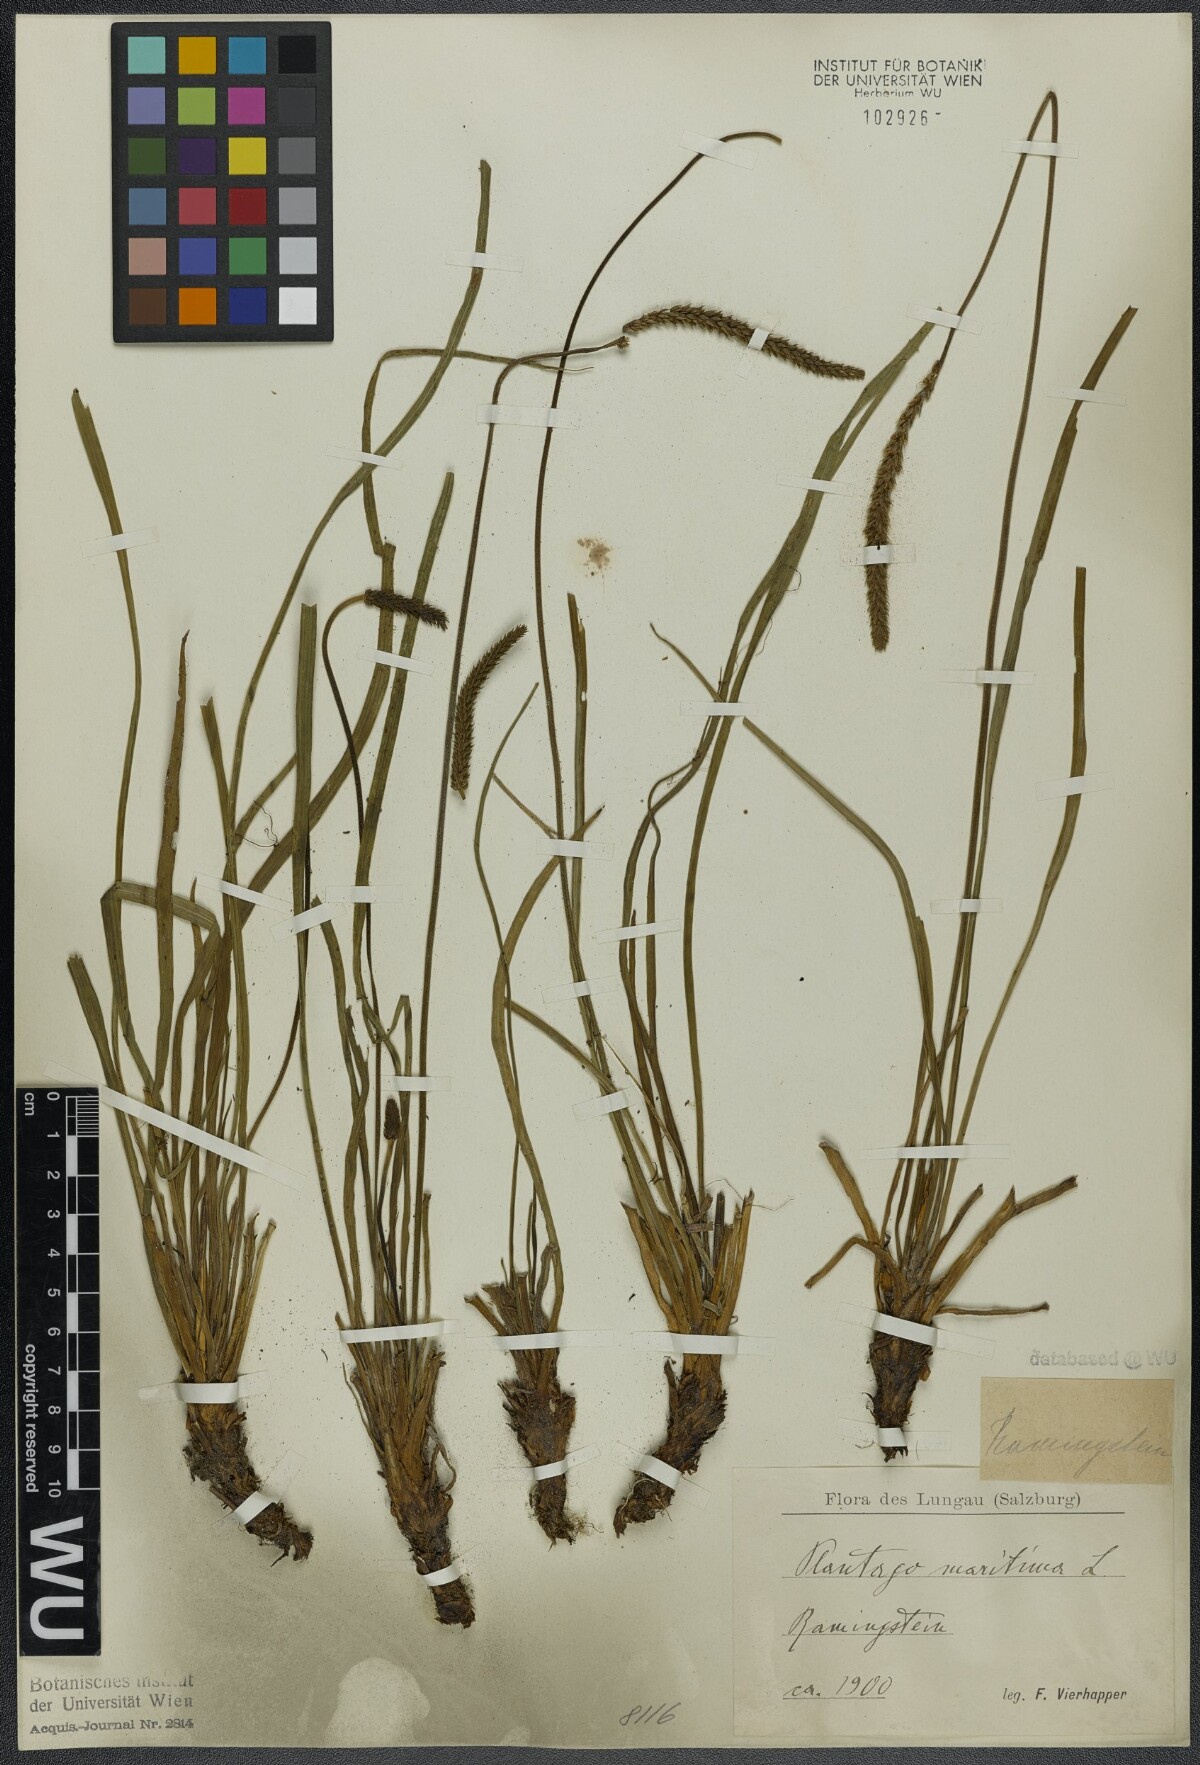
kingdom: Plantae
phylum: Tracheophyta
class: Magnoliopsida
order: Lamiales
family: Plantaginaceae
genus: Plantago
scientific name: Plantago maritima
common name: Sea plantain
